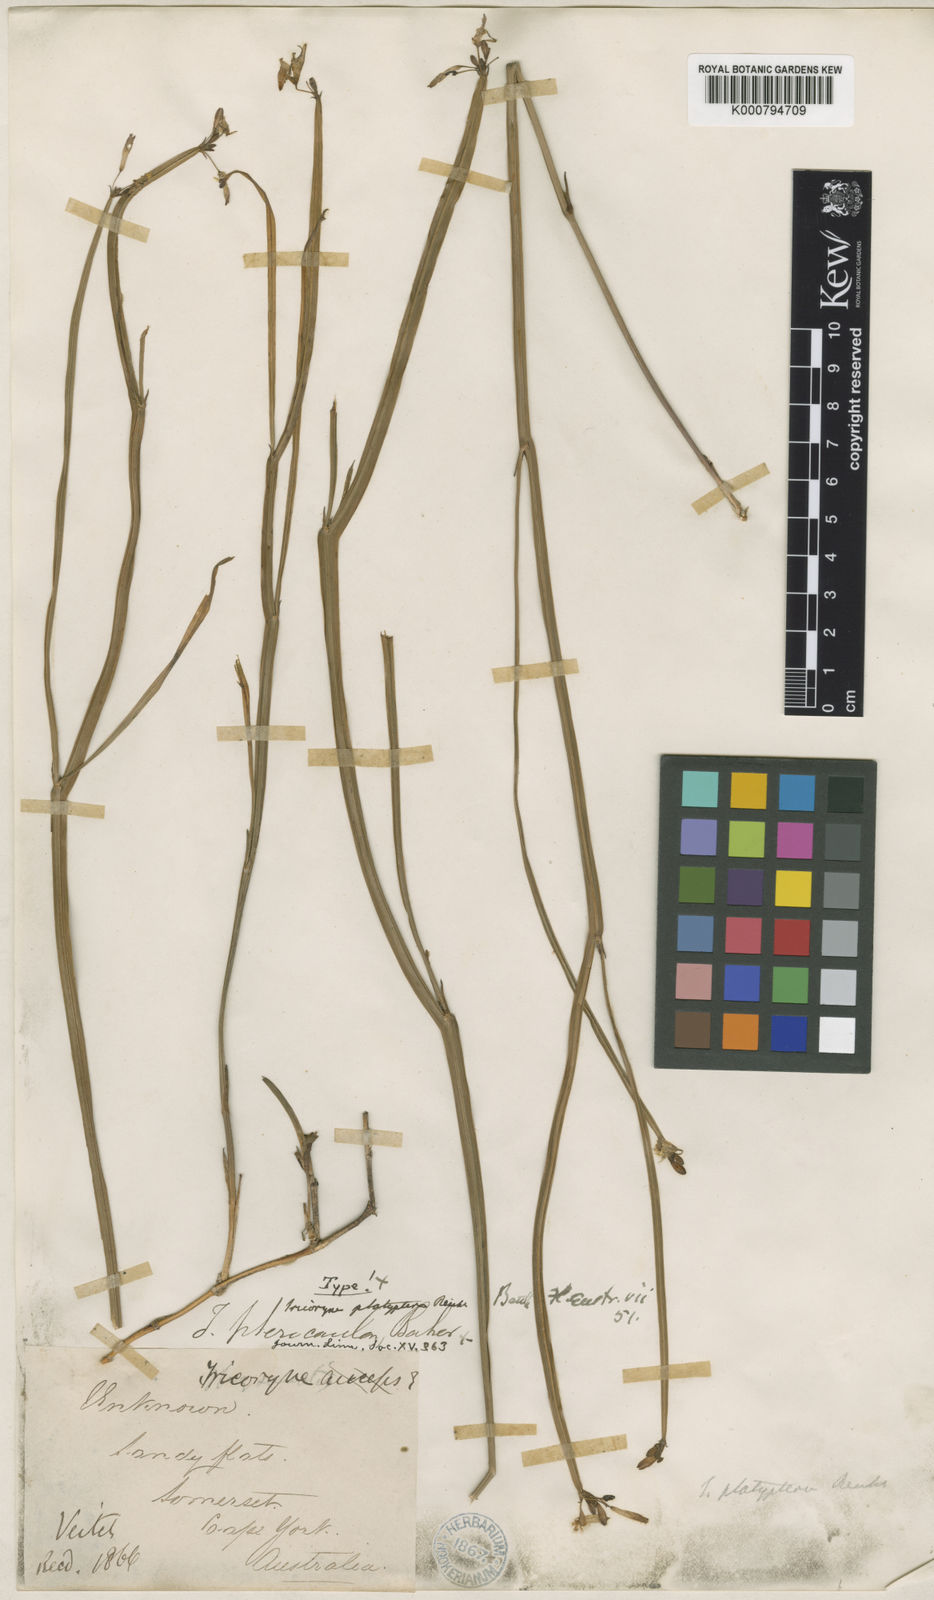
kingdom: Plantae
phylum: Tracheophyta
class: Liliopsida
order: Asparagales
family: Asphodelaceae
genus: Tricoryne
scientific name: Tricoryne platyptera
